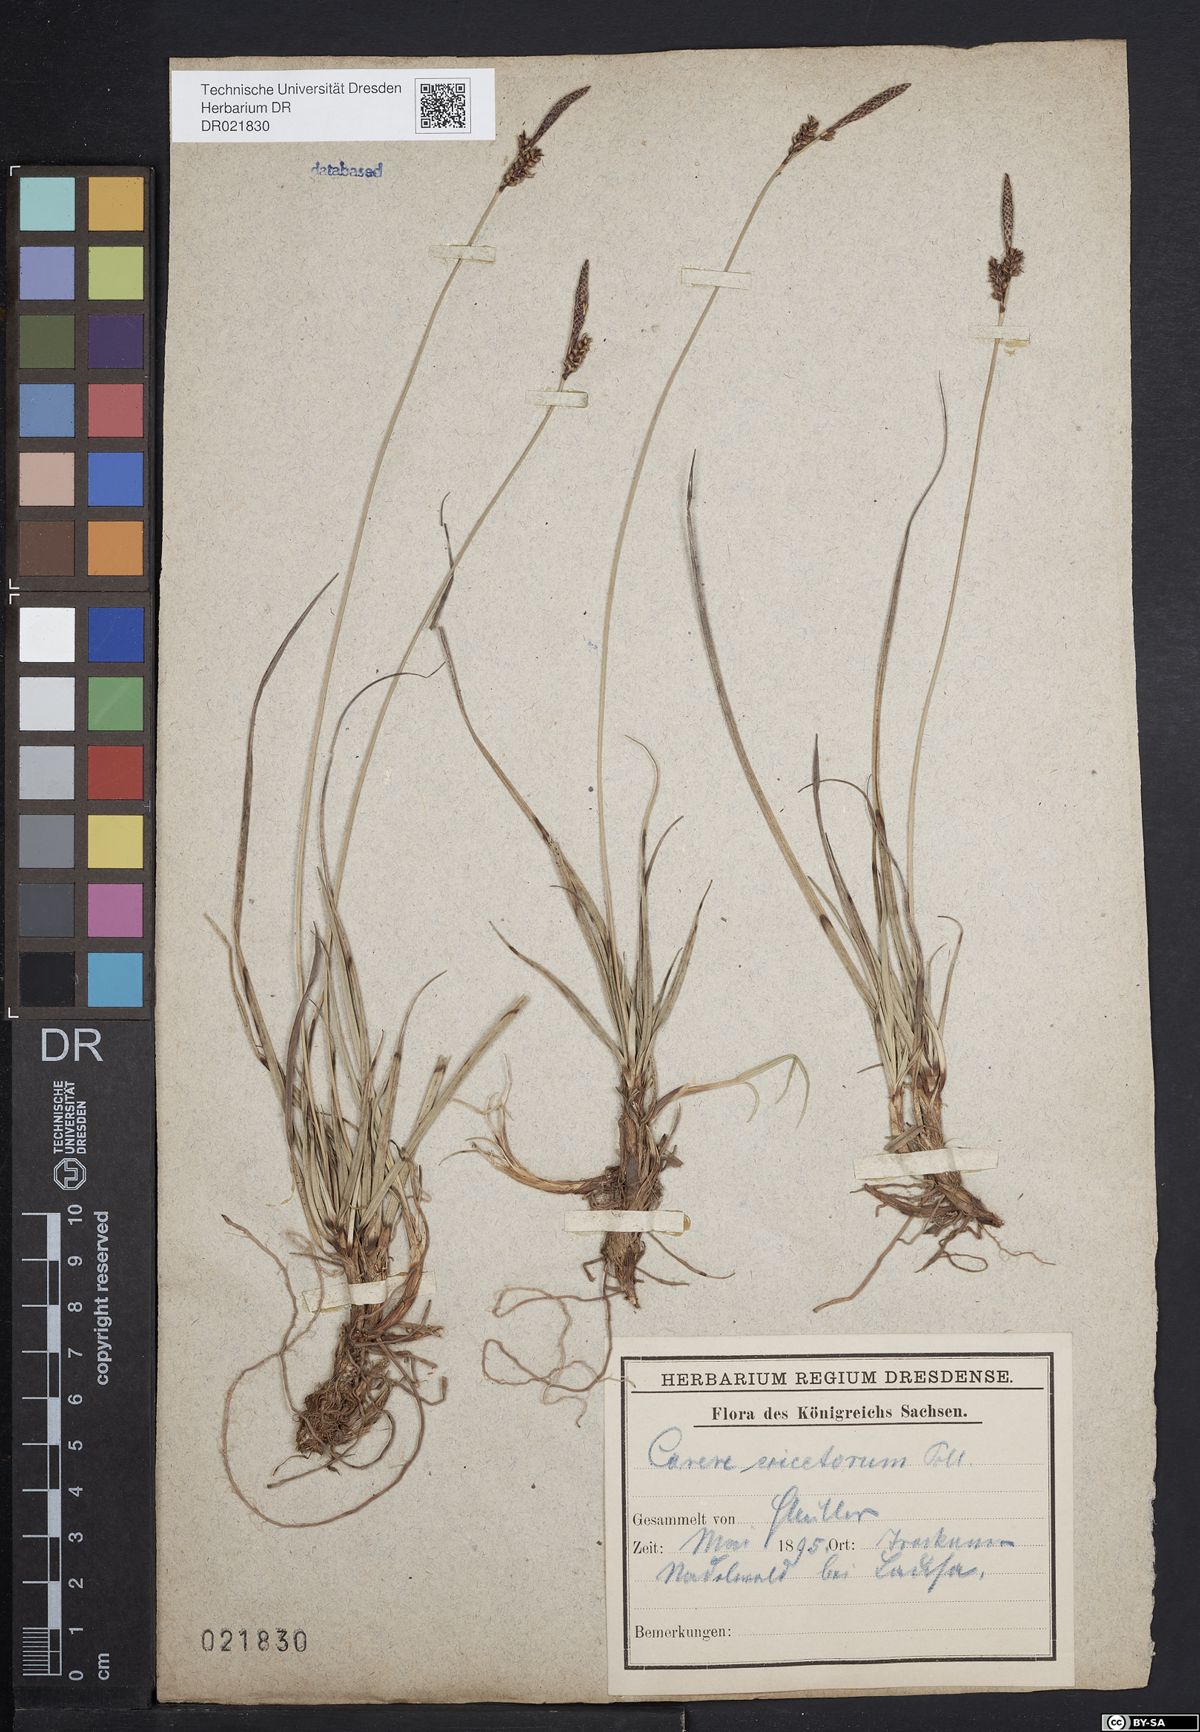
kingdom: Plantae
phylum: Tracheophyta
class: Liliopsida
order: Poales
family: Cyperaceae
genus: Carex
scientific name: Carex ericetorum
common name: Rare spring-sedge
